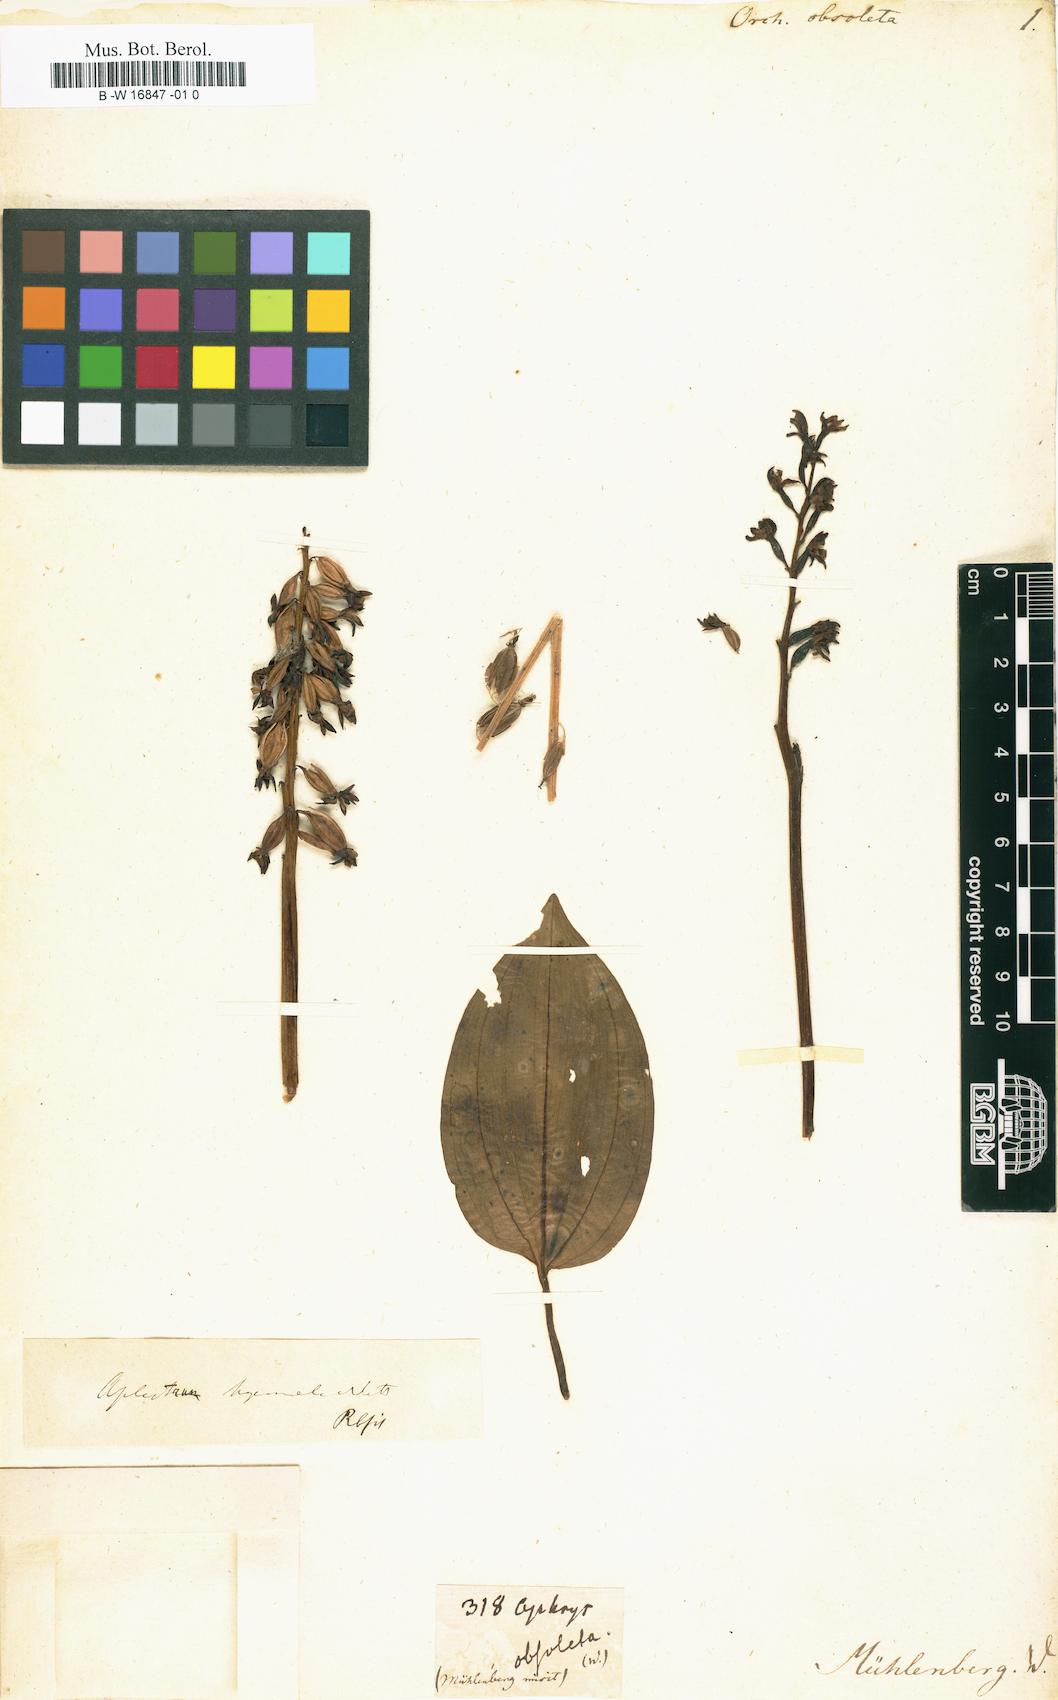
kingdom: Plantae
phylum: Tracheophyta
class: Liliopsida
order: Asparagales
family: Orchidaceae
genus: Dactylorhiza
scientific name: Dactylorhiza viridis
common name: Longbract frog orchid
